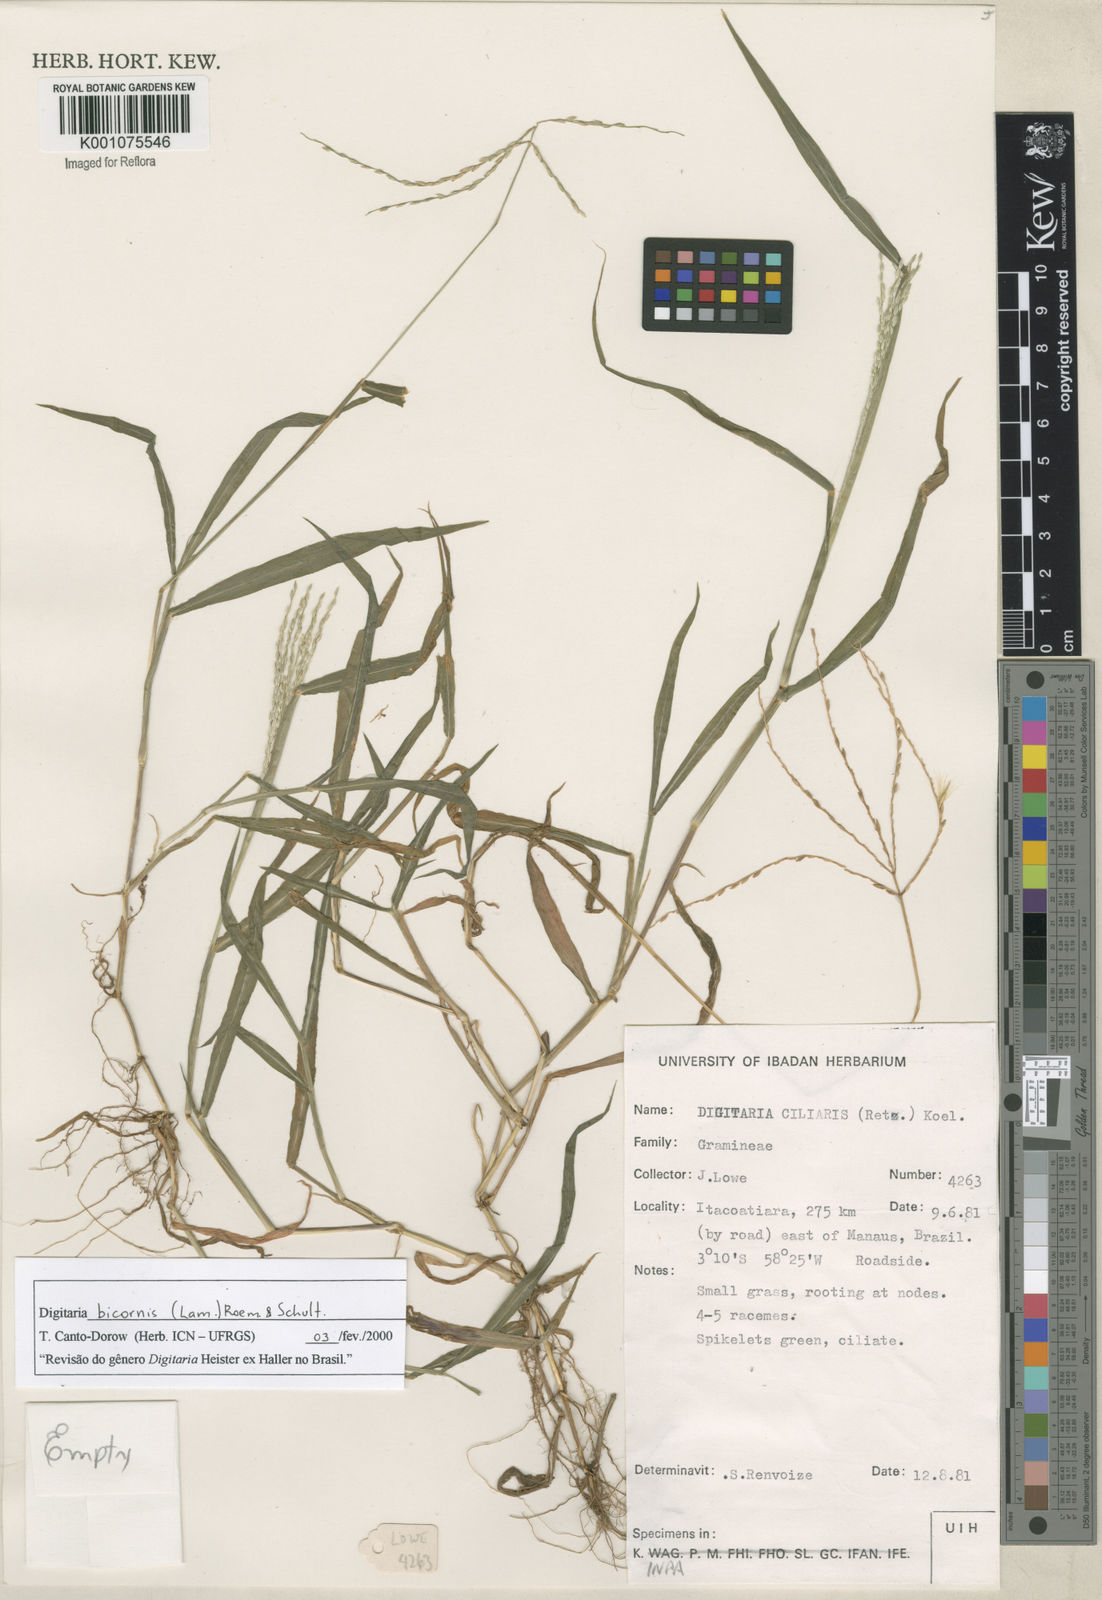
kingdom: Plantae
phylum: Tracheophyta
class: Liliopsida
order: Poales
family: Poaceae
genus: Digitaria
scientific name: Digitaria bicornis
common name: Asian crabgrass
